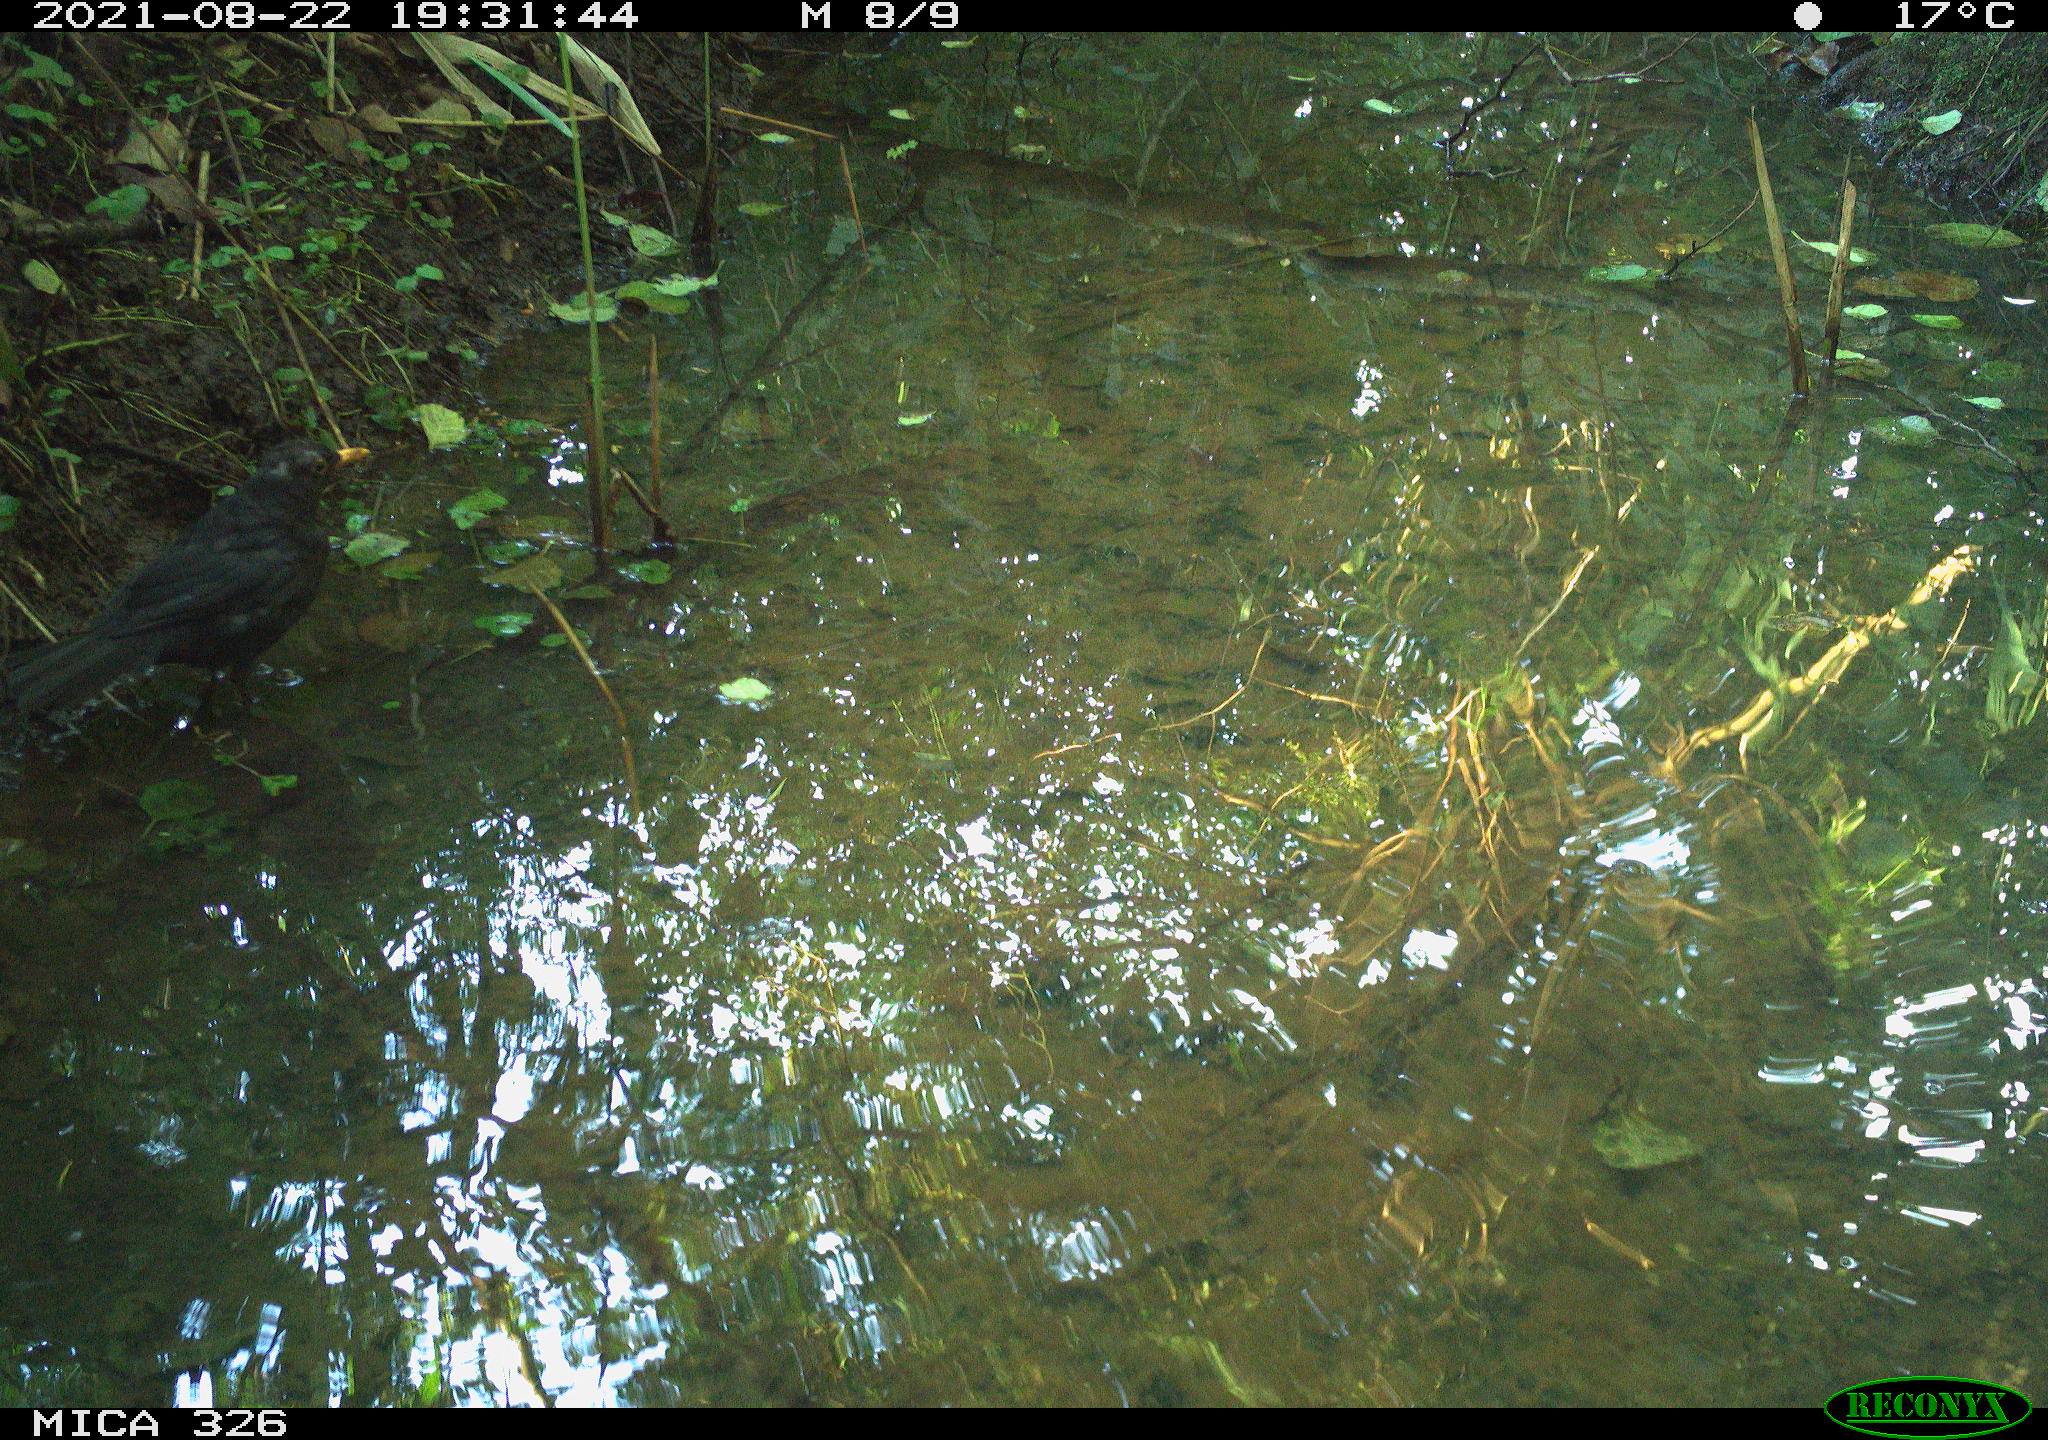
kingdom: Animalia
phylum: Chordata
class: Aves
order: Passeriformes
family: Turdidae
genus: Turdus
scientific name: Turdus merula
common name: Common blackbird
